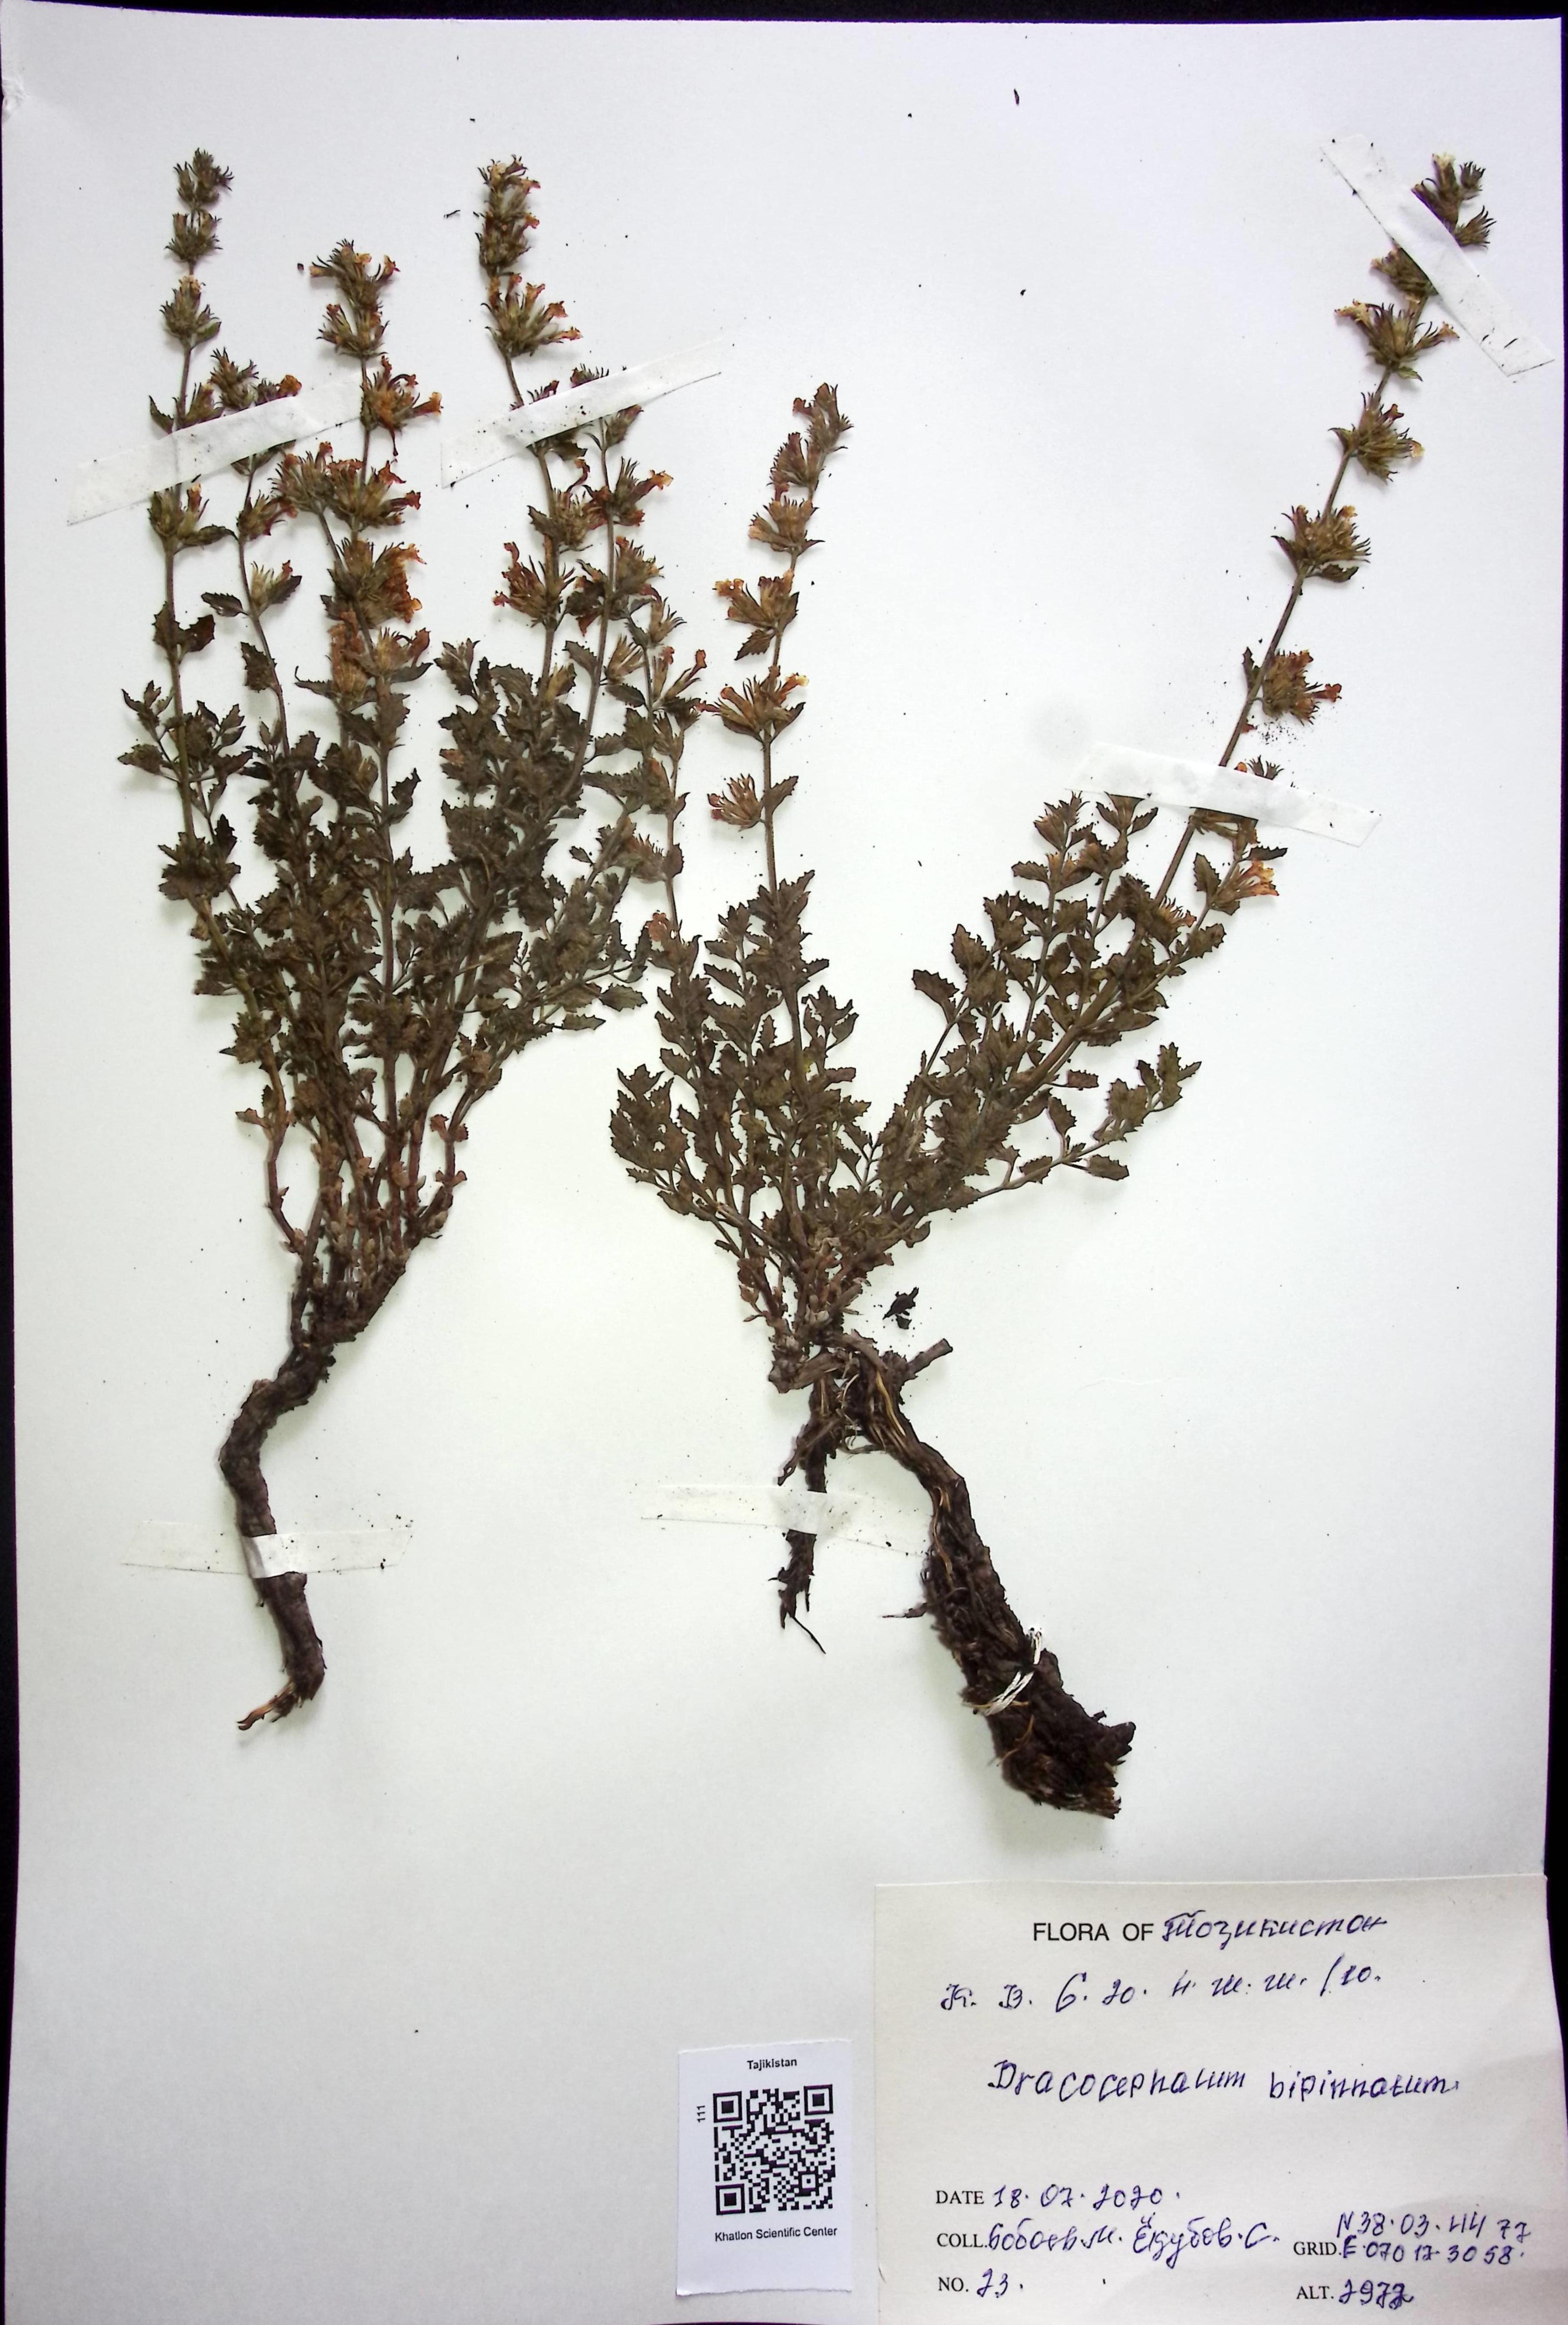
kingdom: Plantae
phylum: Tracheophyta
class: Liliopsida
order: Asparagales
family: Asparagaceae
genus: Dracaena
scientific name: Dracaena
